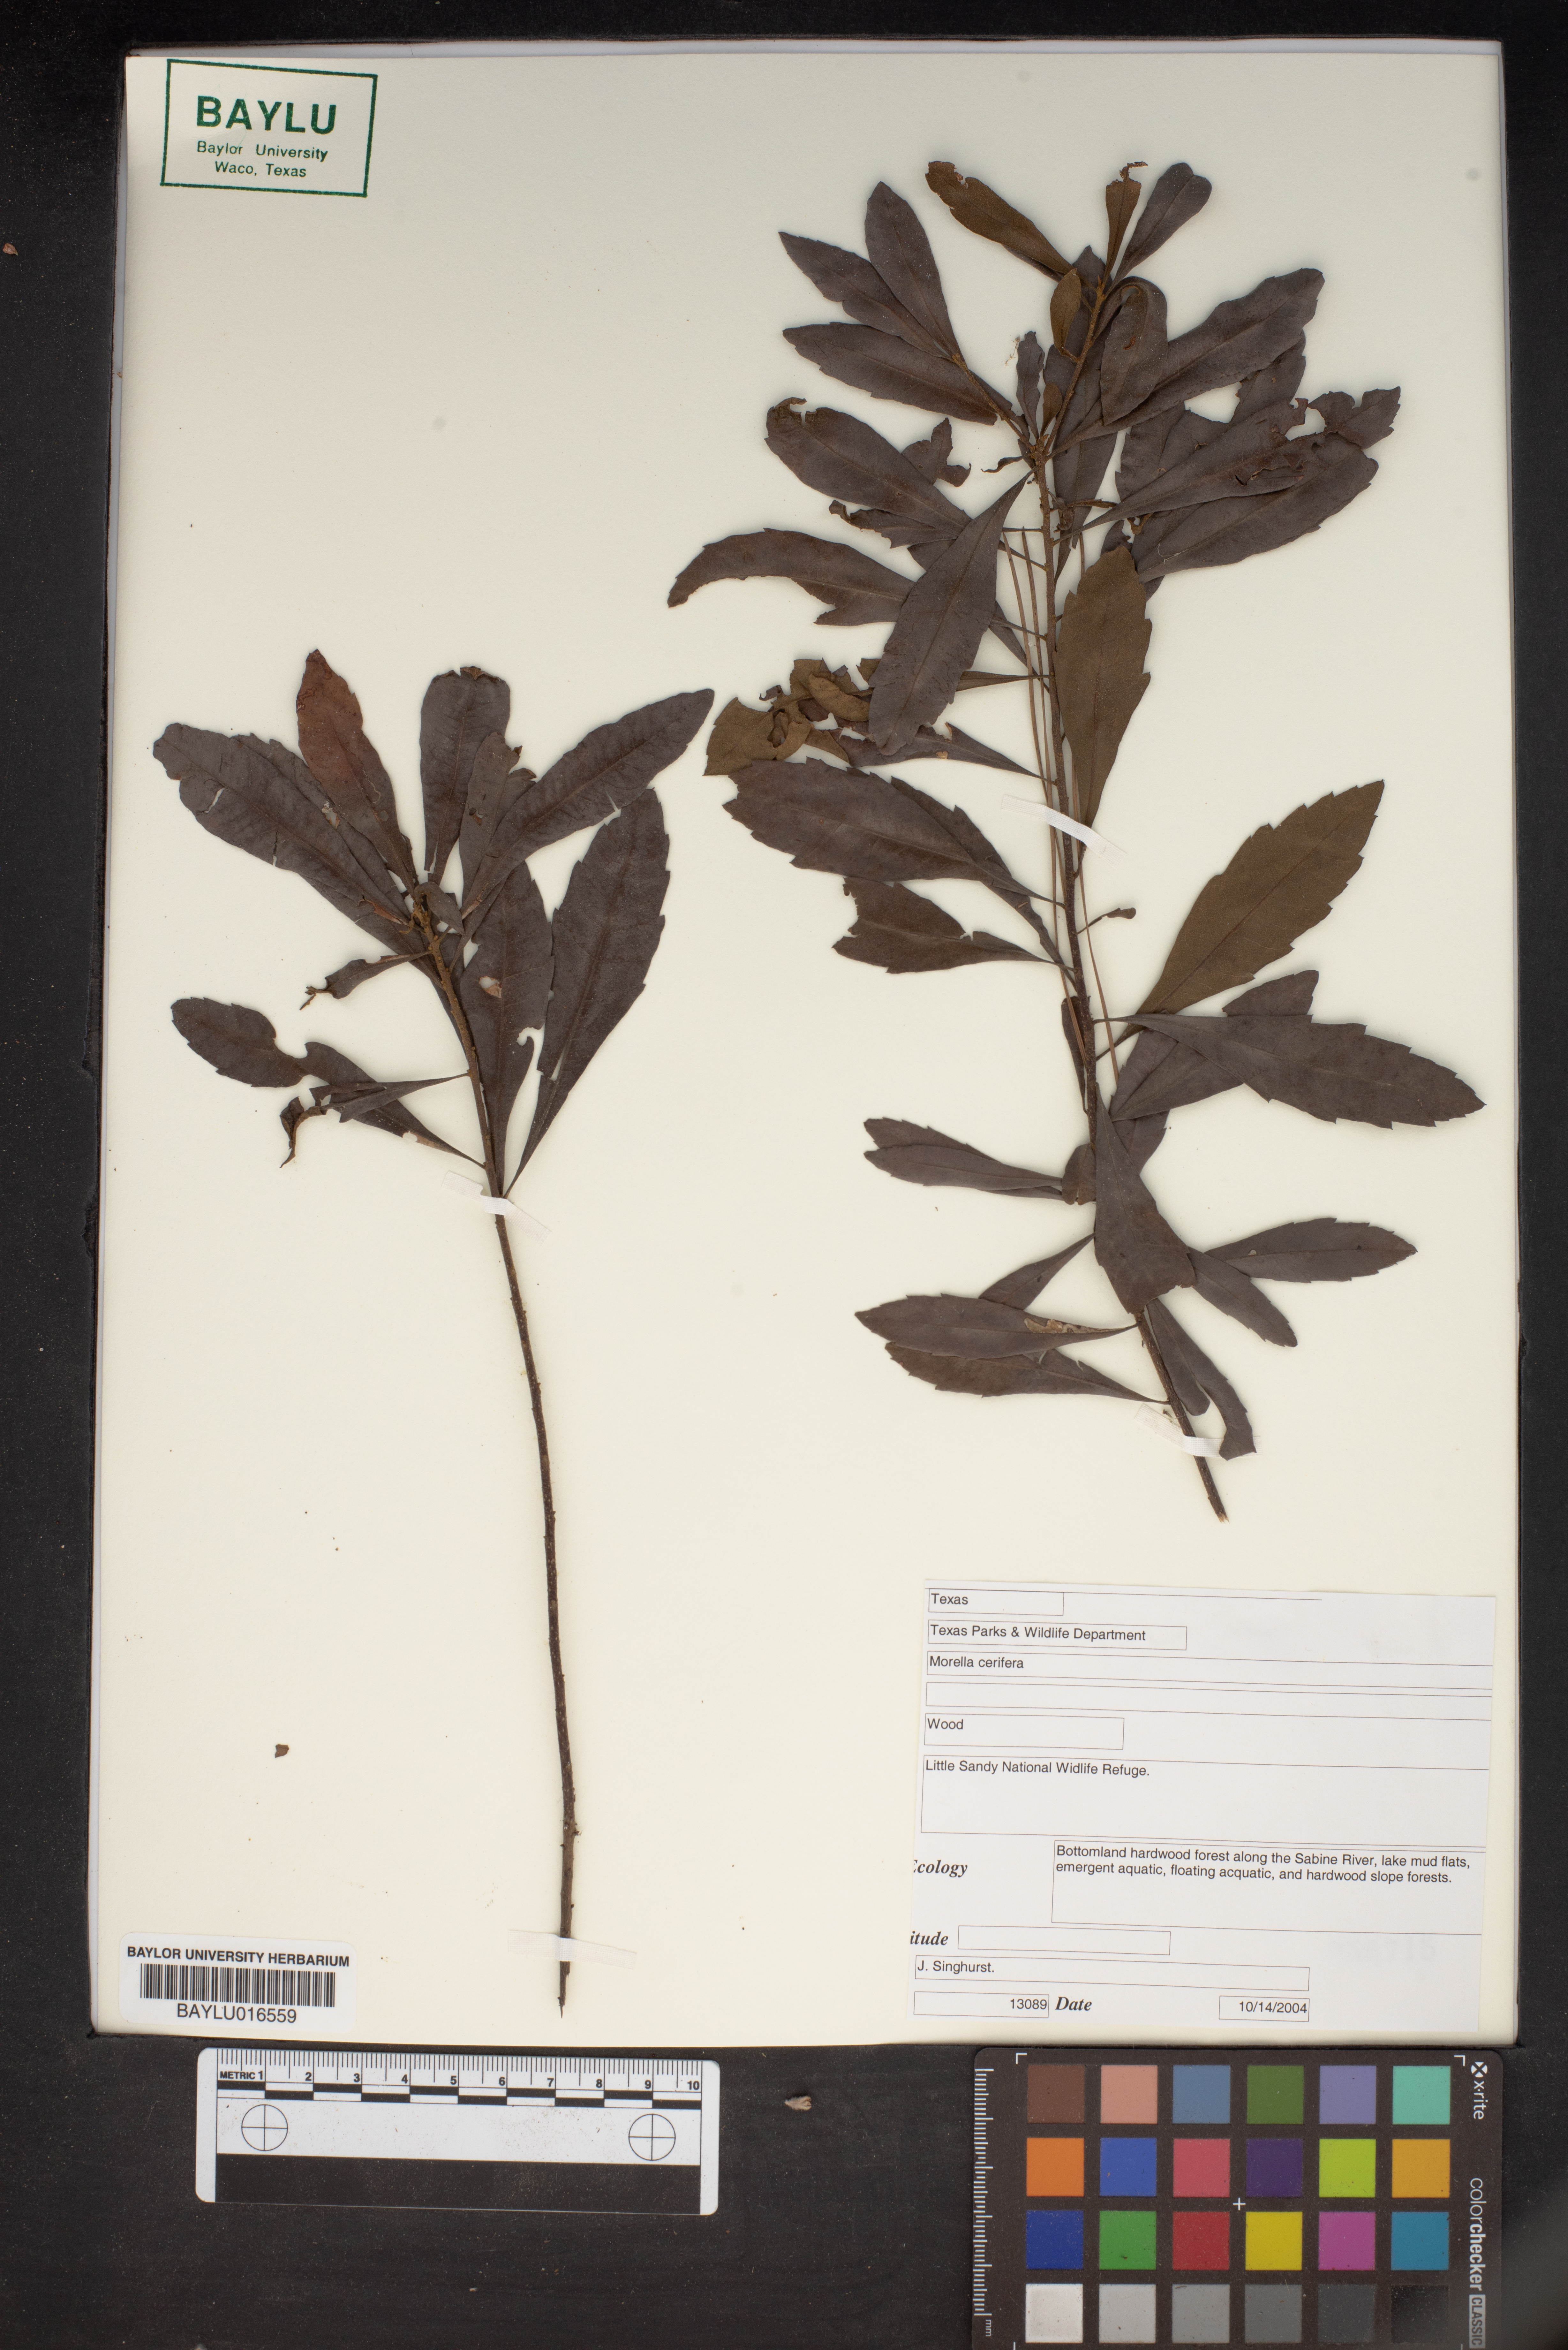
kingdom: Plantae
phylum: Tracheophyta
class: Magnoliopsida
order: Fagales
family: Myricaceae
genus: Morella
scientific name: Morella cerifera
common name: Wax myrtle
